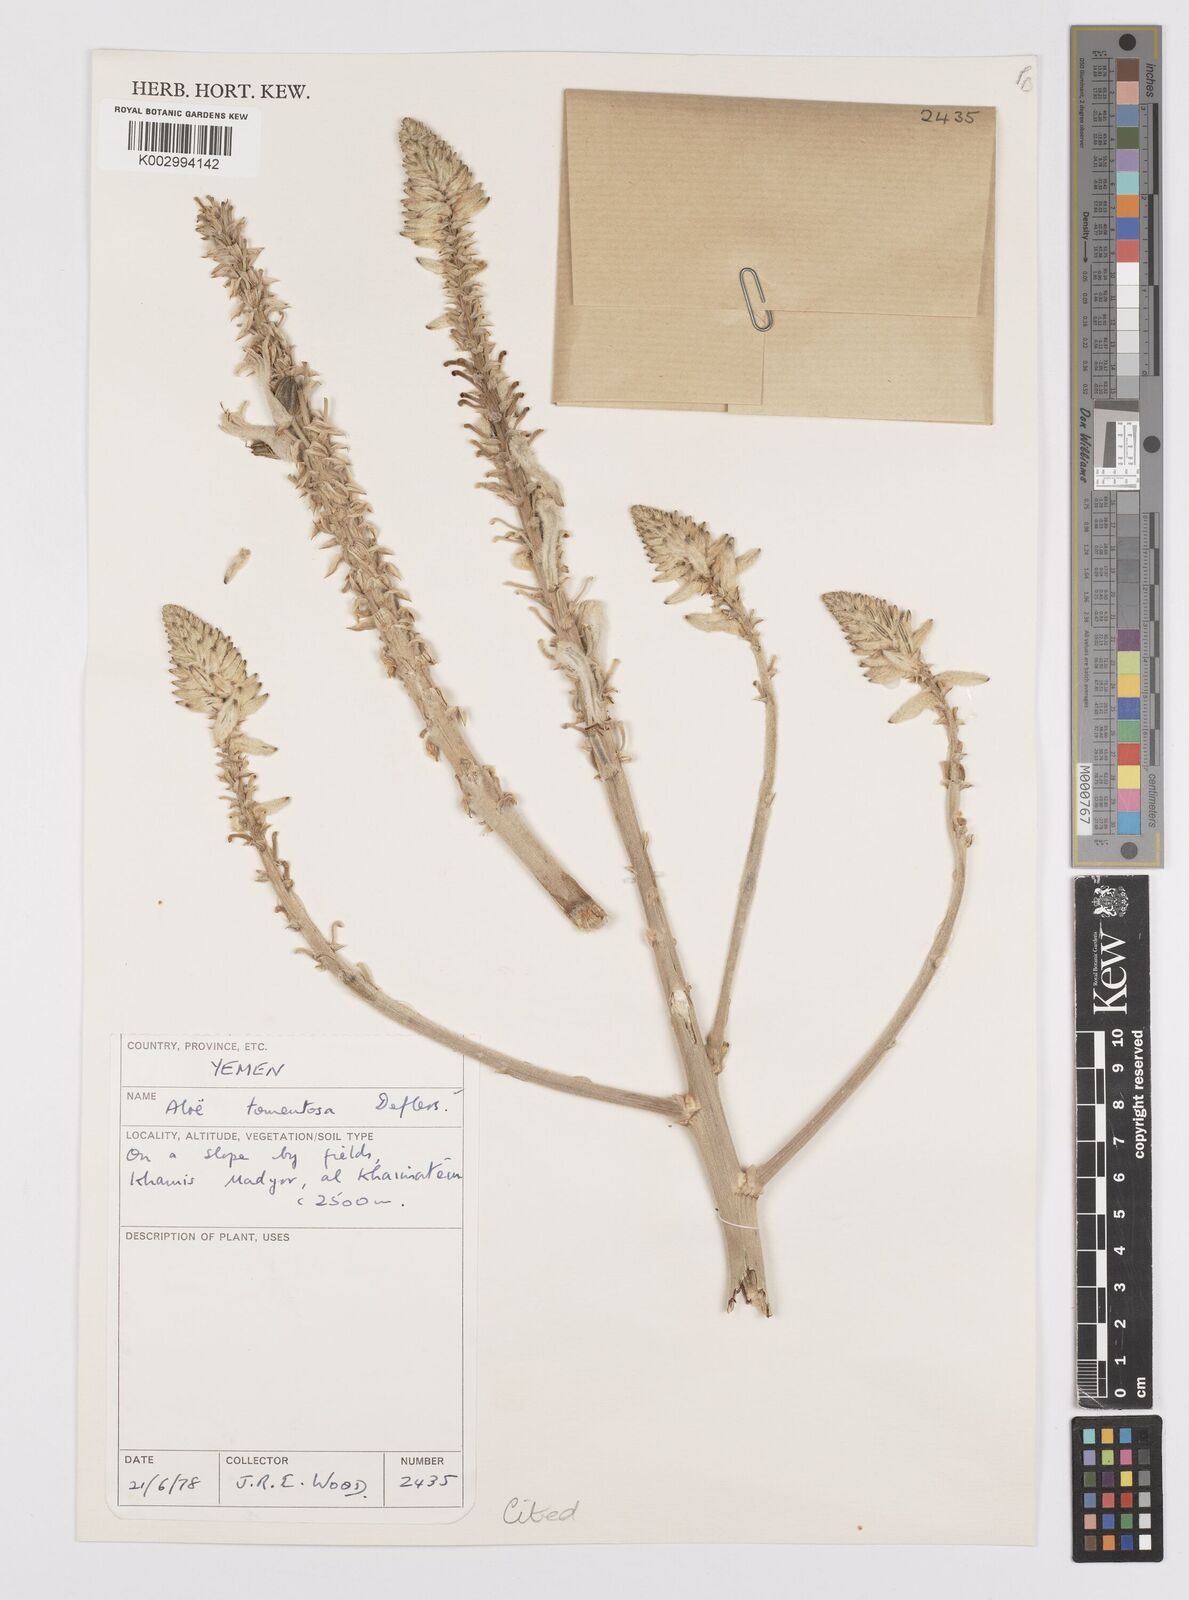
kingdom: Plantae
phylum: Tracheophyta
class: Liliopsida
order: Asparagales
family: Asphodelaceae
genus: Aloe
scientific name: Aloe tomentosa
